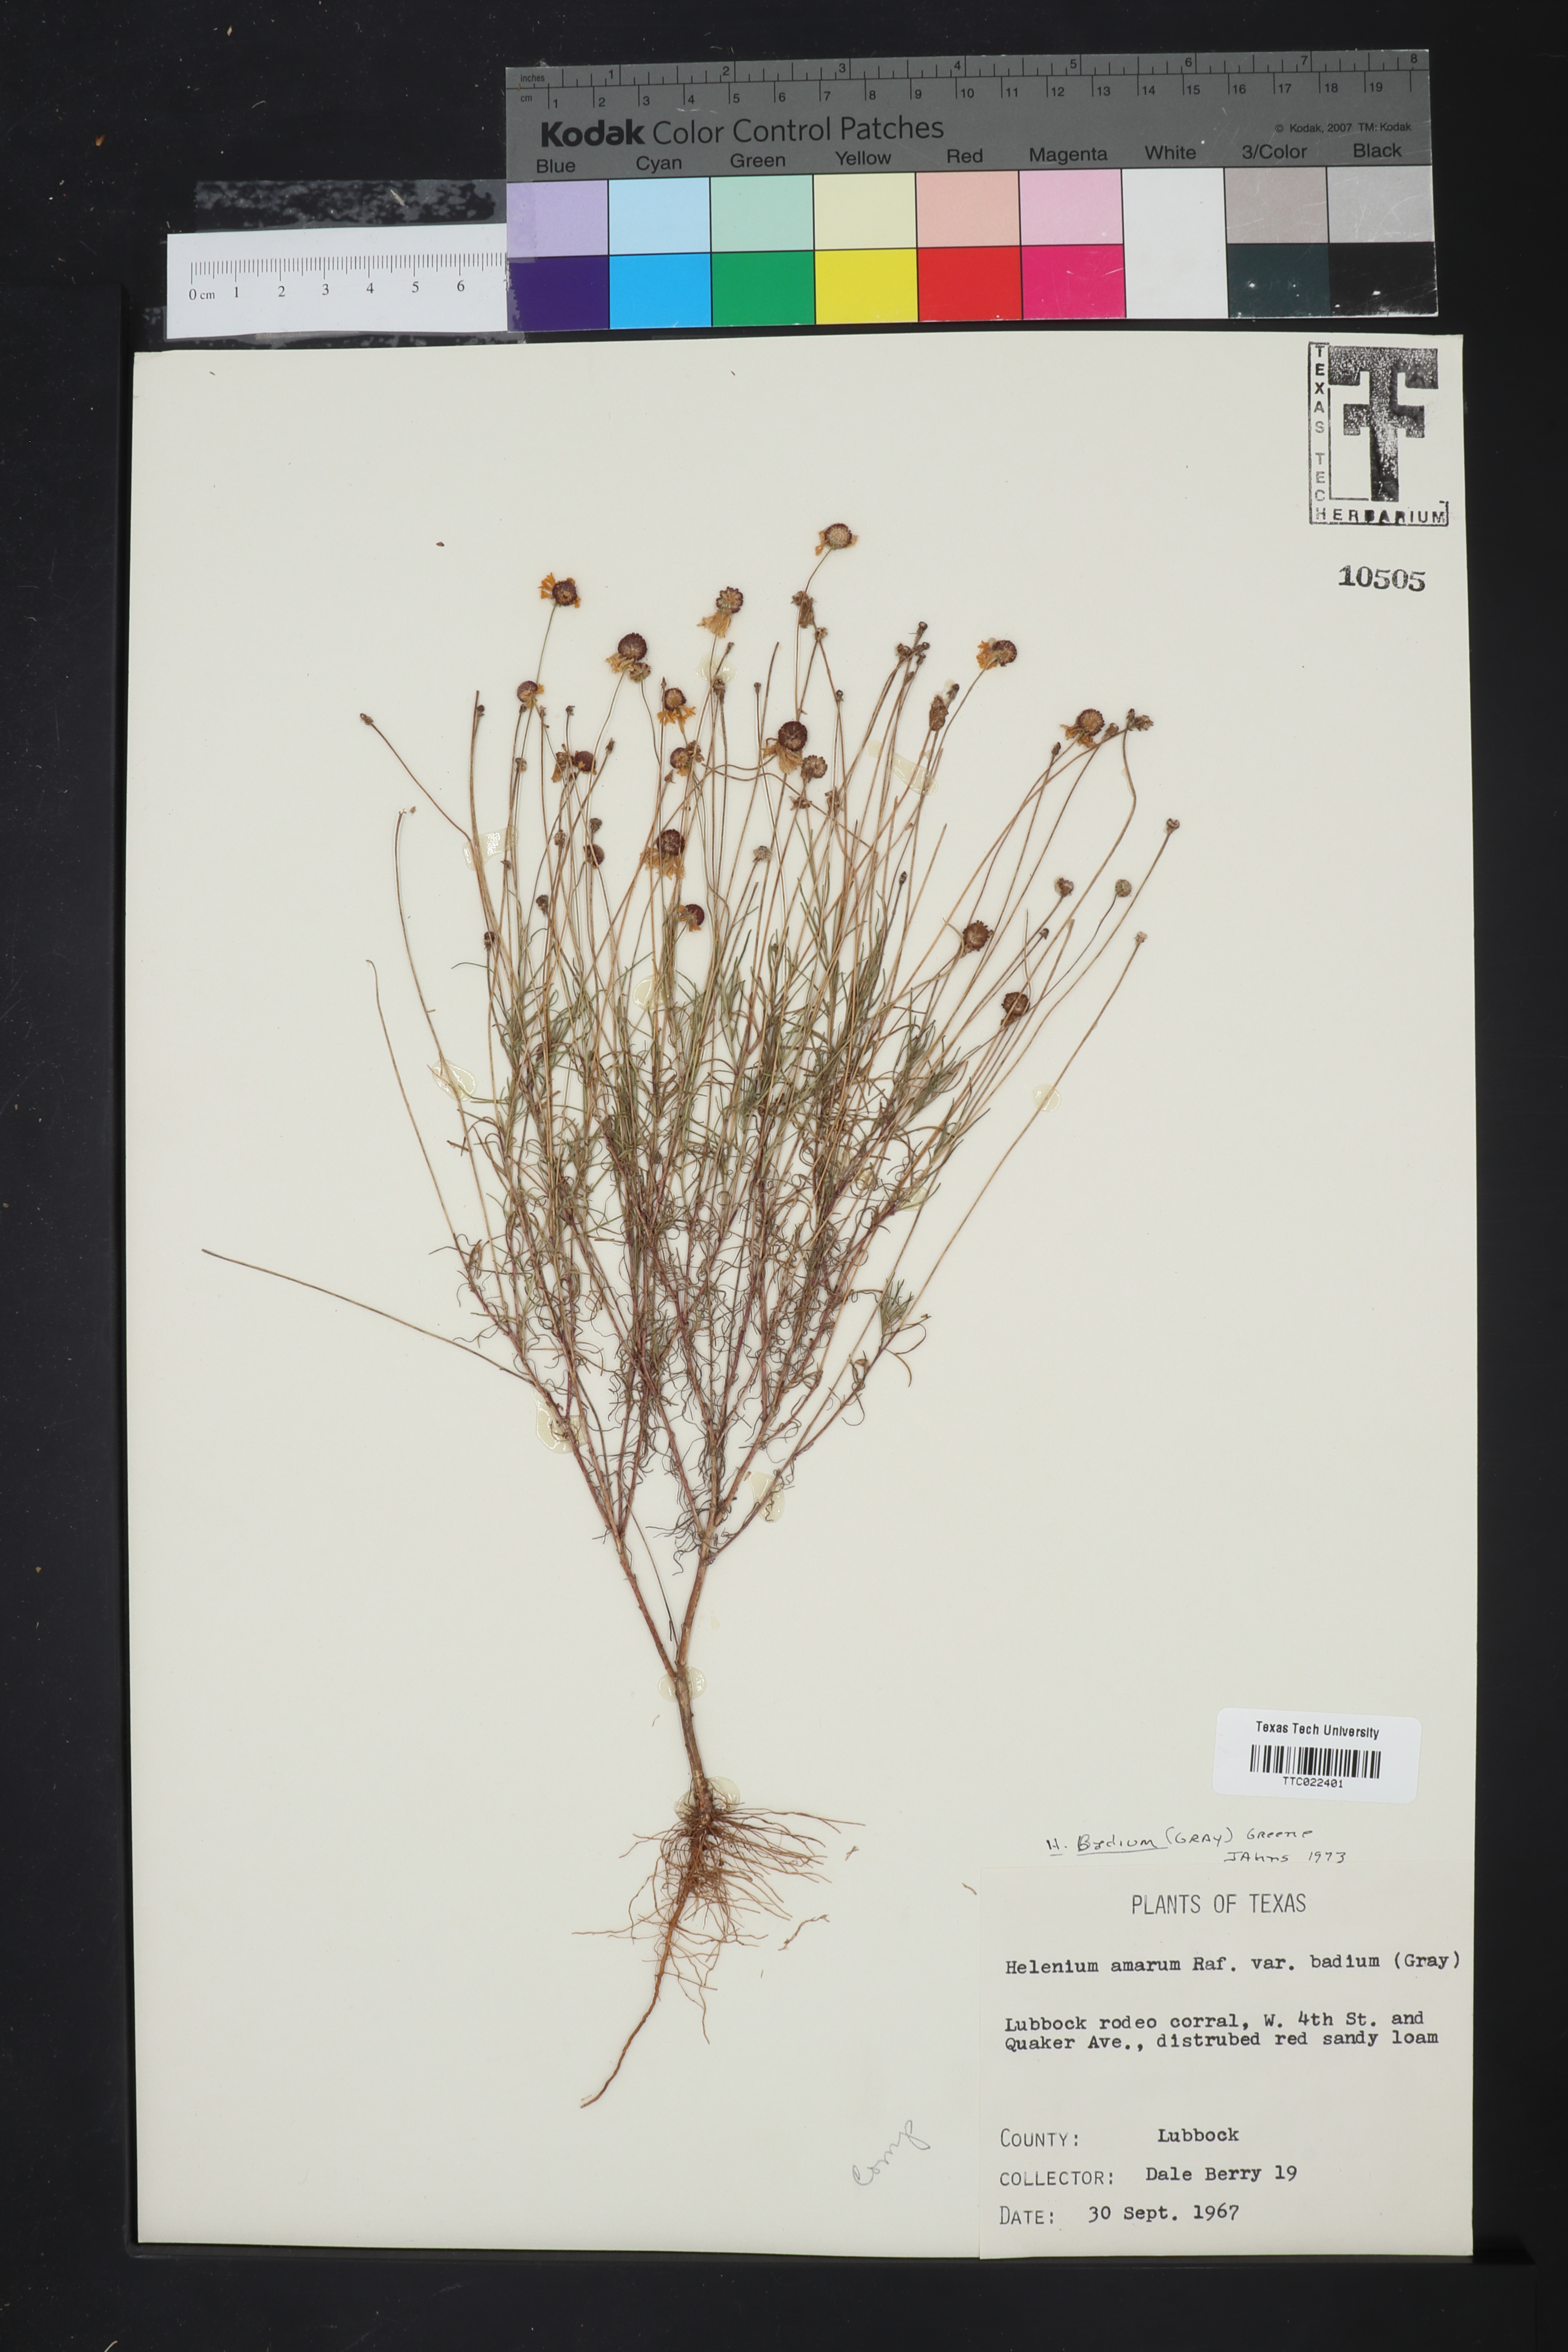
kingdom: Plantae
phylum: Tracheophyta
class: Magnoliopsida
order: Asterales
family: Asteraceae
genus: Helenium
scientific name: Helenium amarum
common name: Bitter sneezeweed
